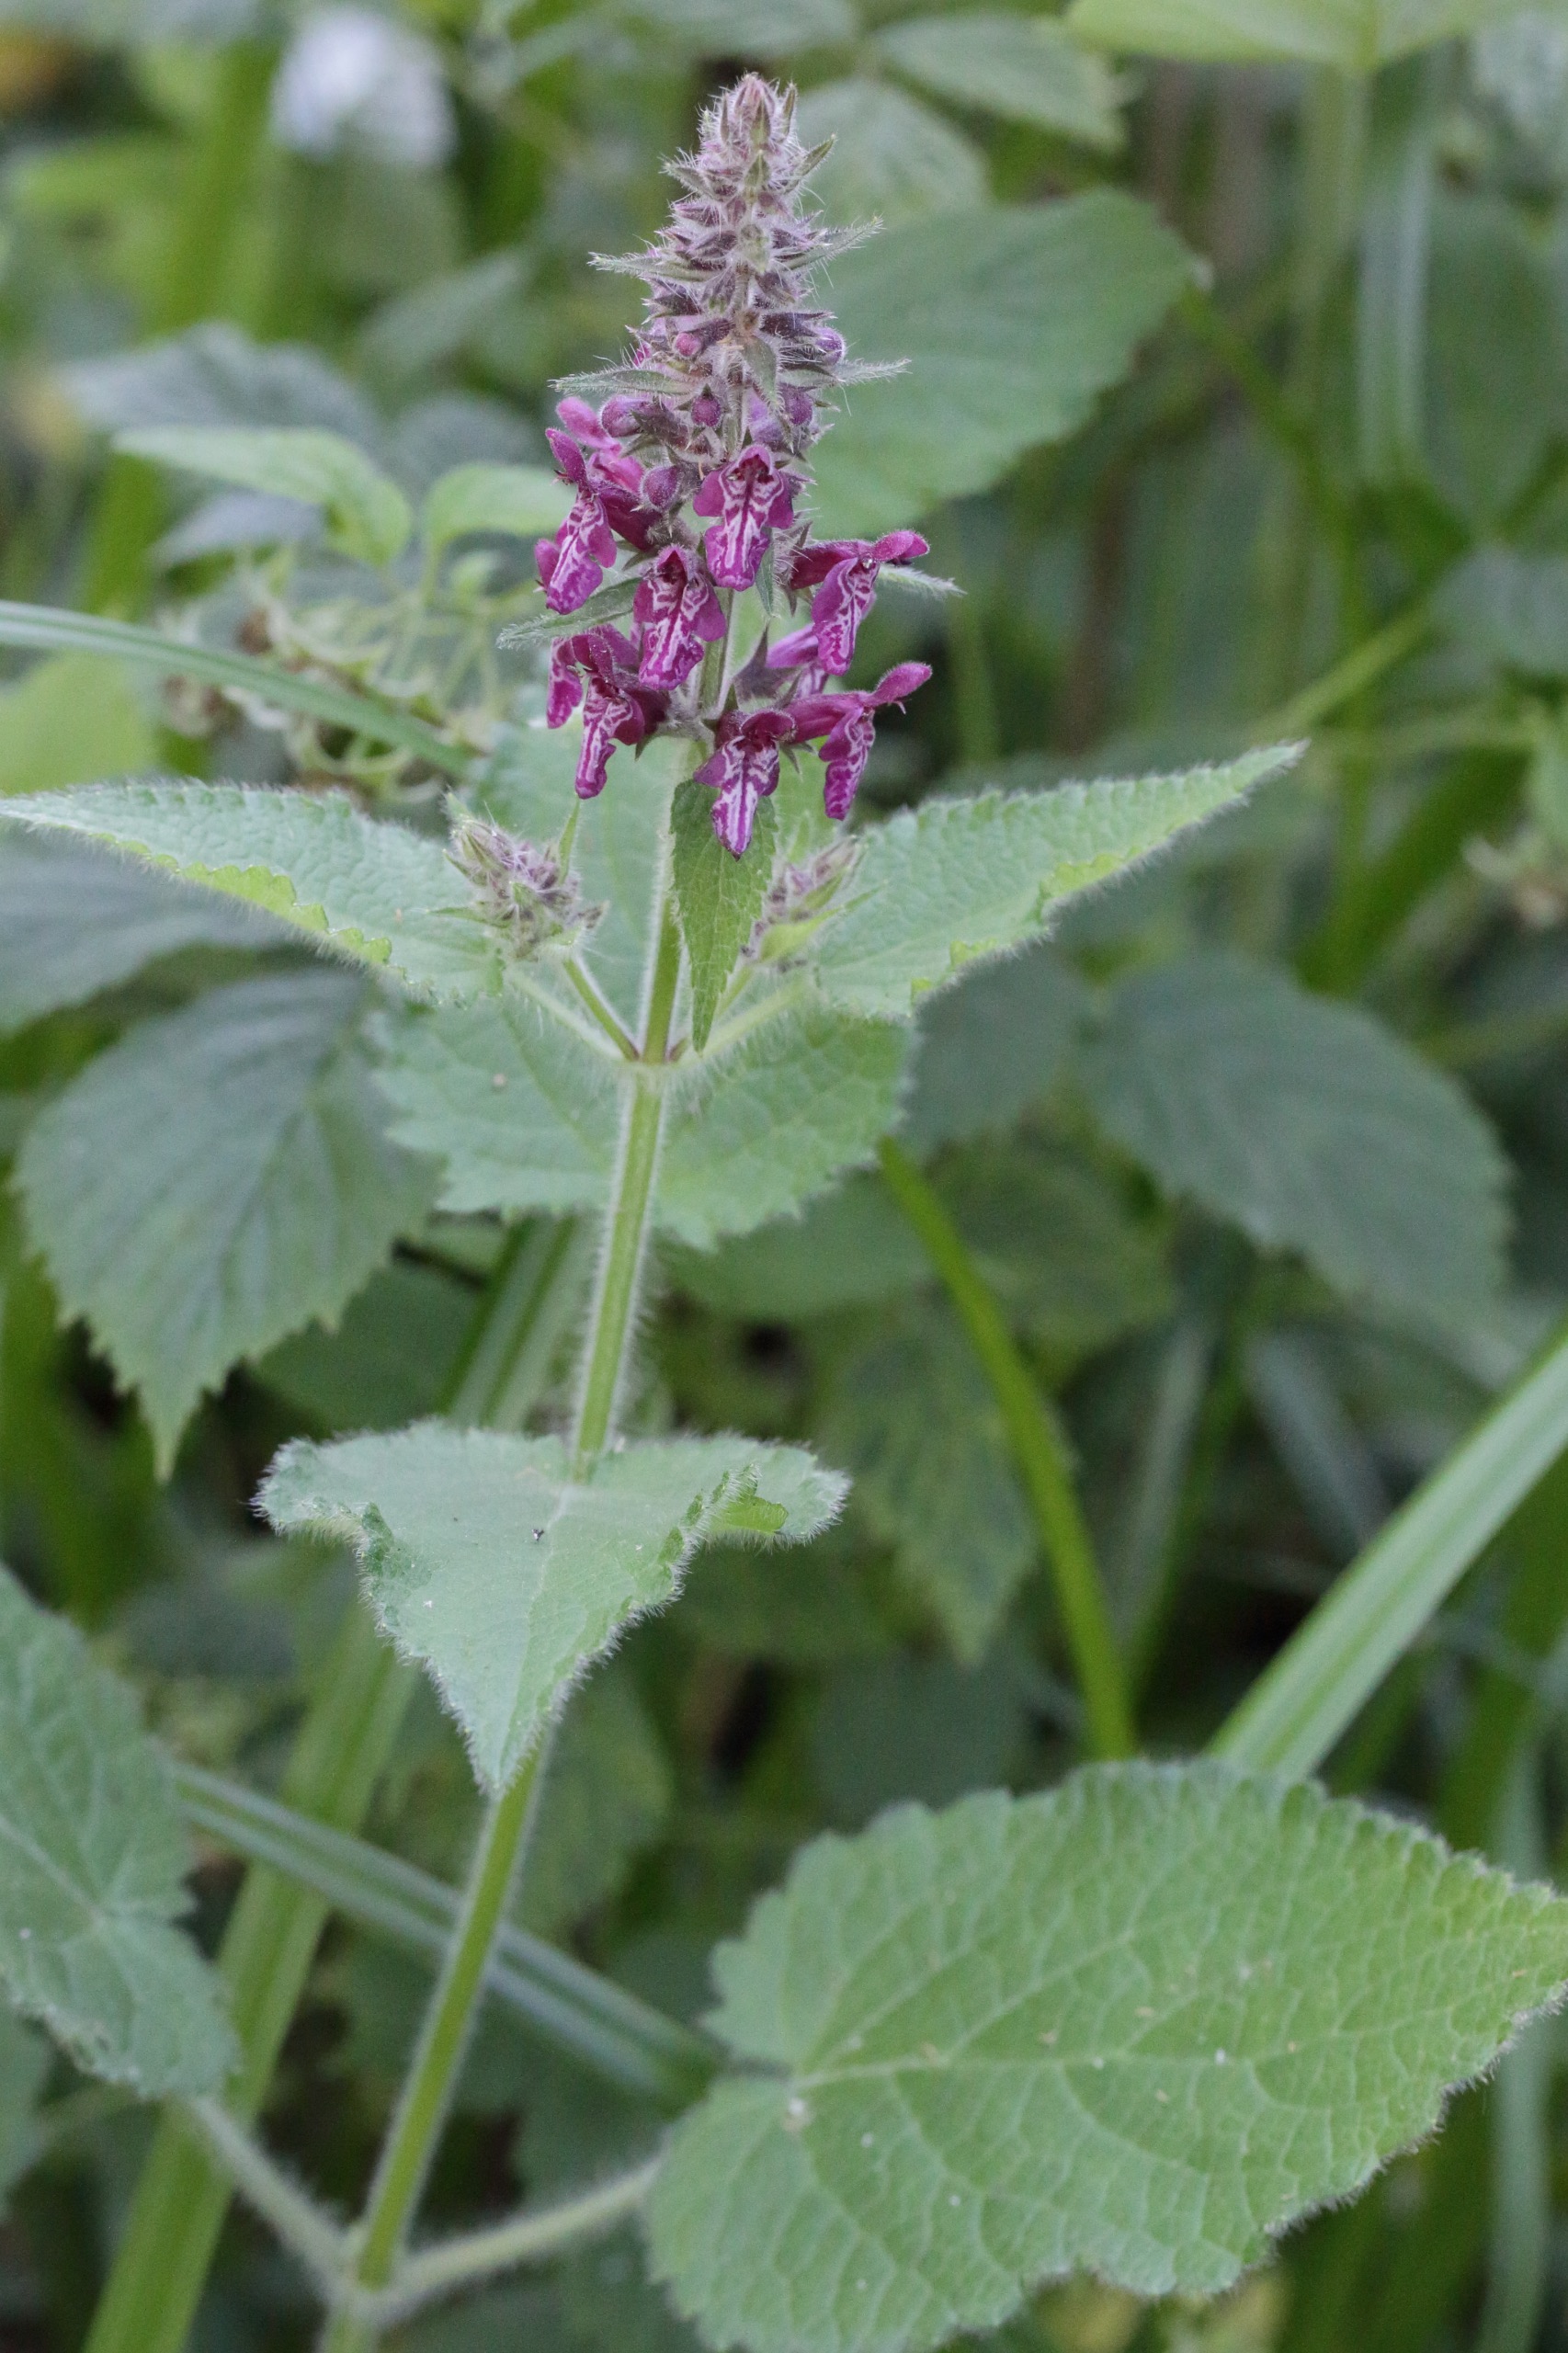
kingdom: Plantae
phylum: Tracheophyta
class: Magnoliopsida
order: Lamiales
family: Lamiaceae
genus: Stachys
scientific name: Stachys sylvatica
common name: Skov-galtetand
